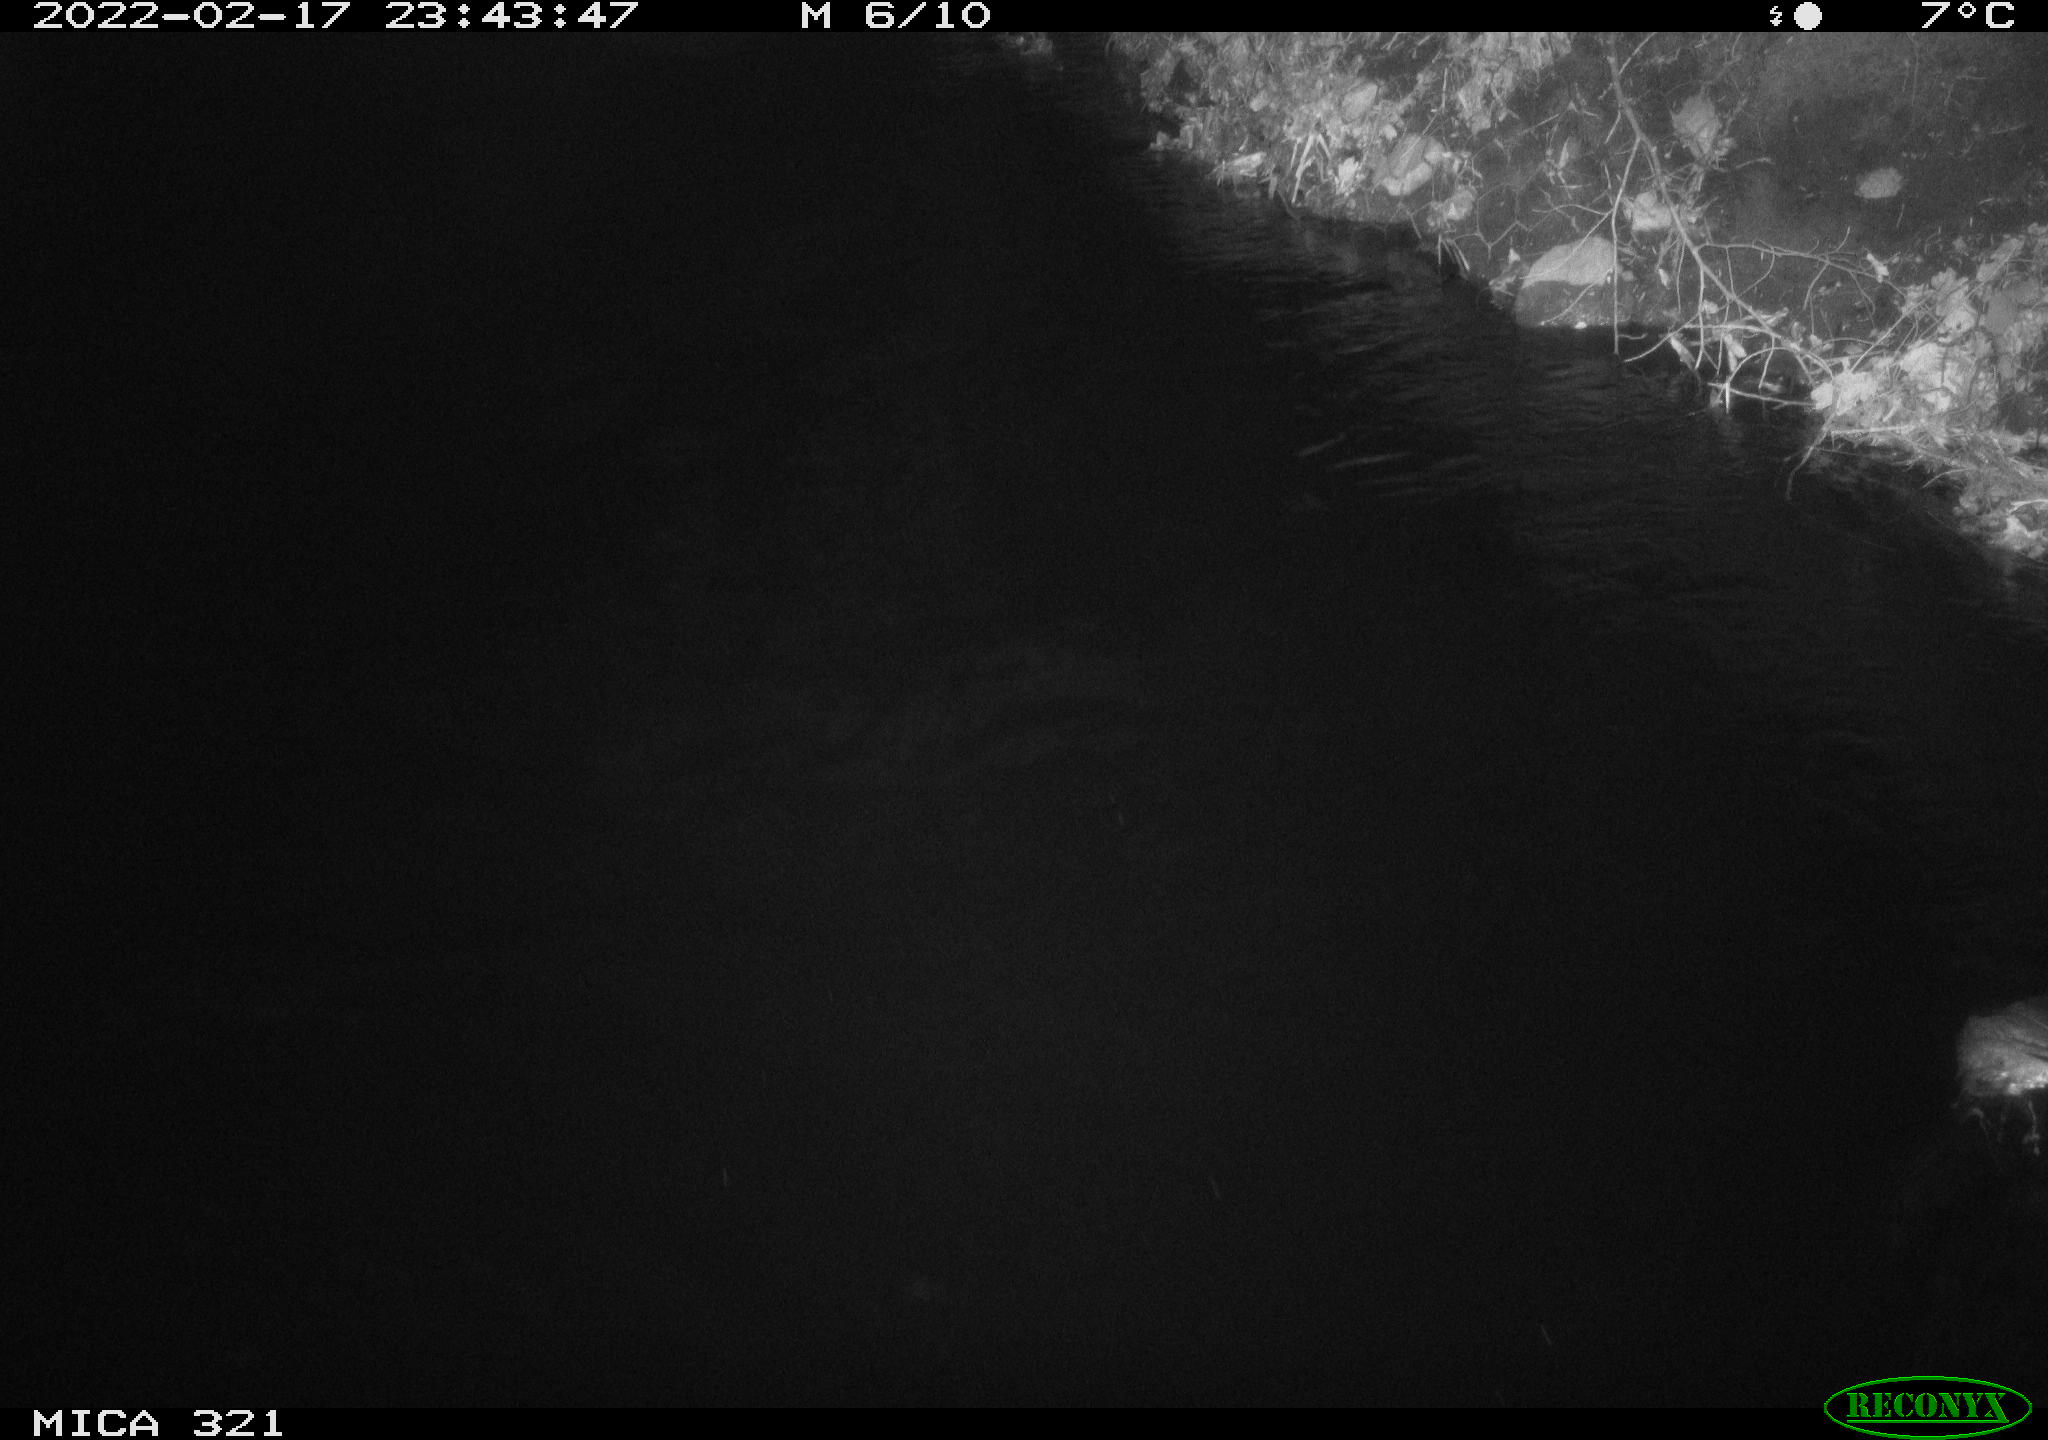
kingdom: Animalia
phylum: Chordata
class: Aves
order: Anseriformes
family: Anatidae
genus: Anas
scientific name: Anas platyrhynchos
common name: Mallard
